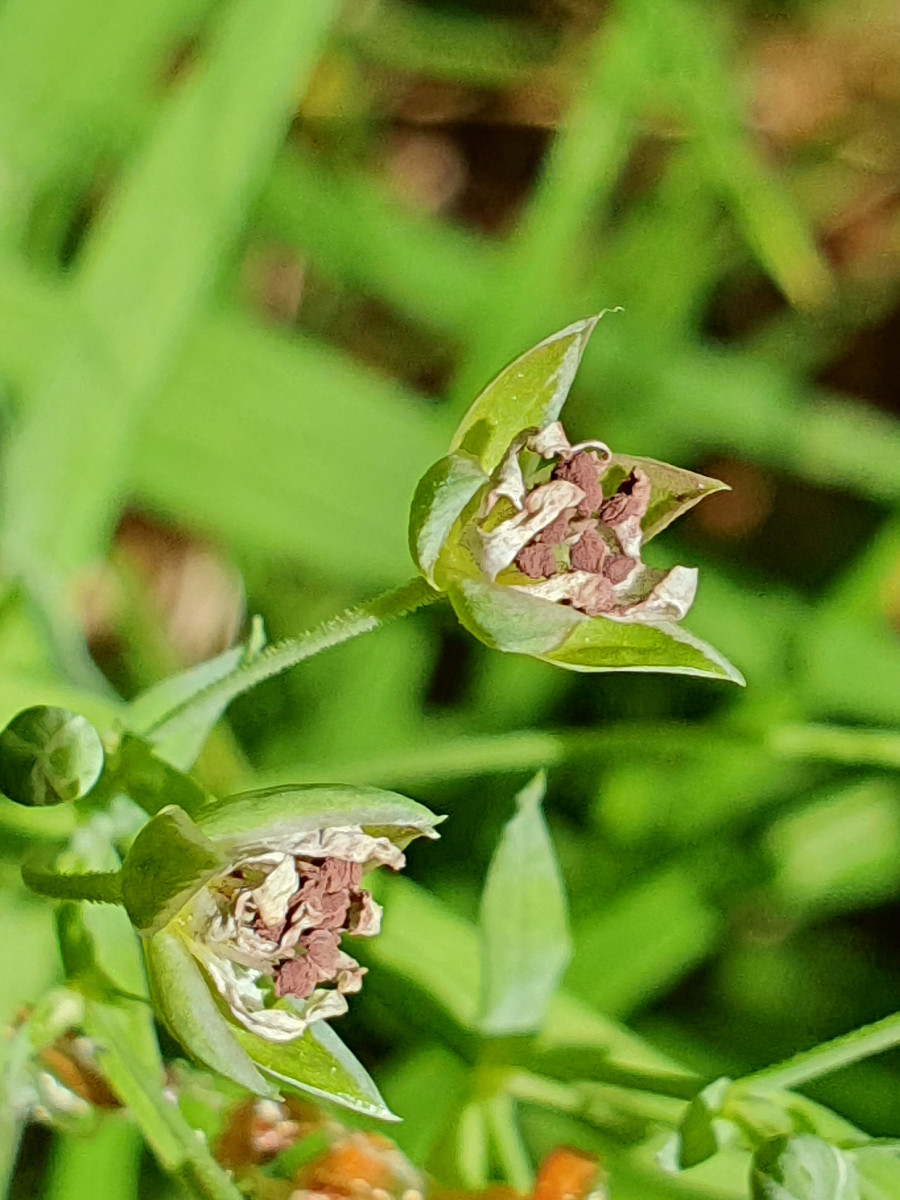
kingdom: Fungi
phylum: Basidiomycota
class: Microbotryomycetes
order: Microbotryales
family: Microbotryaceae
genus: Microbotryum
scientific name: Microbotryum stellariae
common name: fladstjerne-støvbladrust
